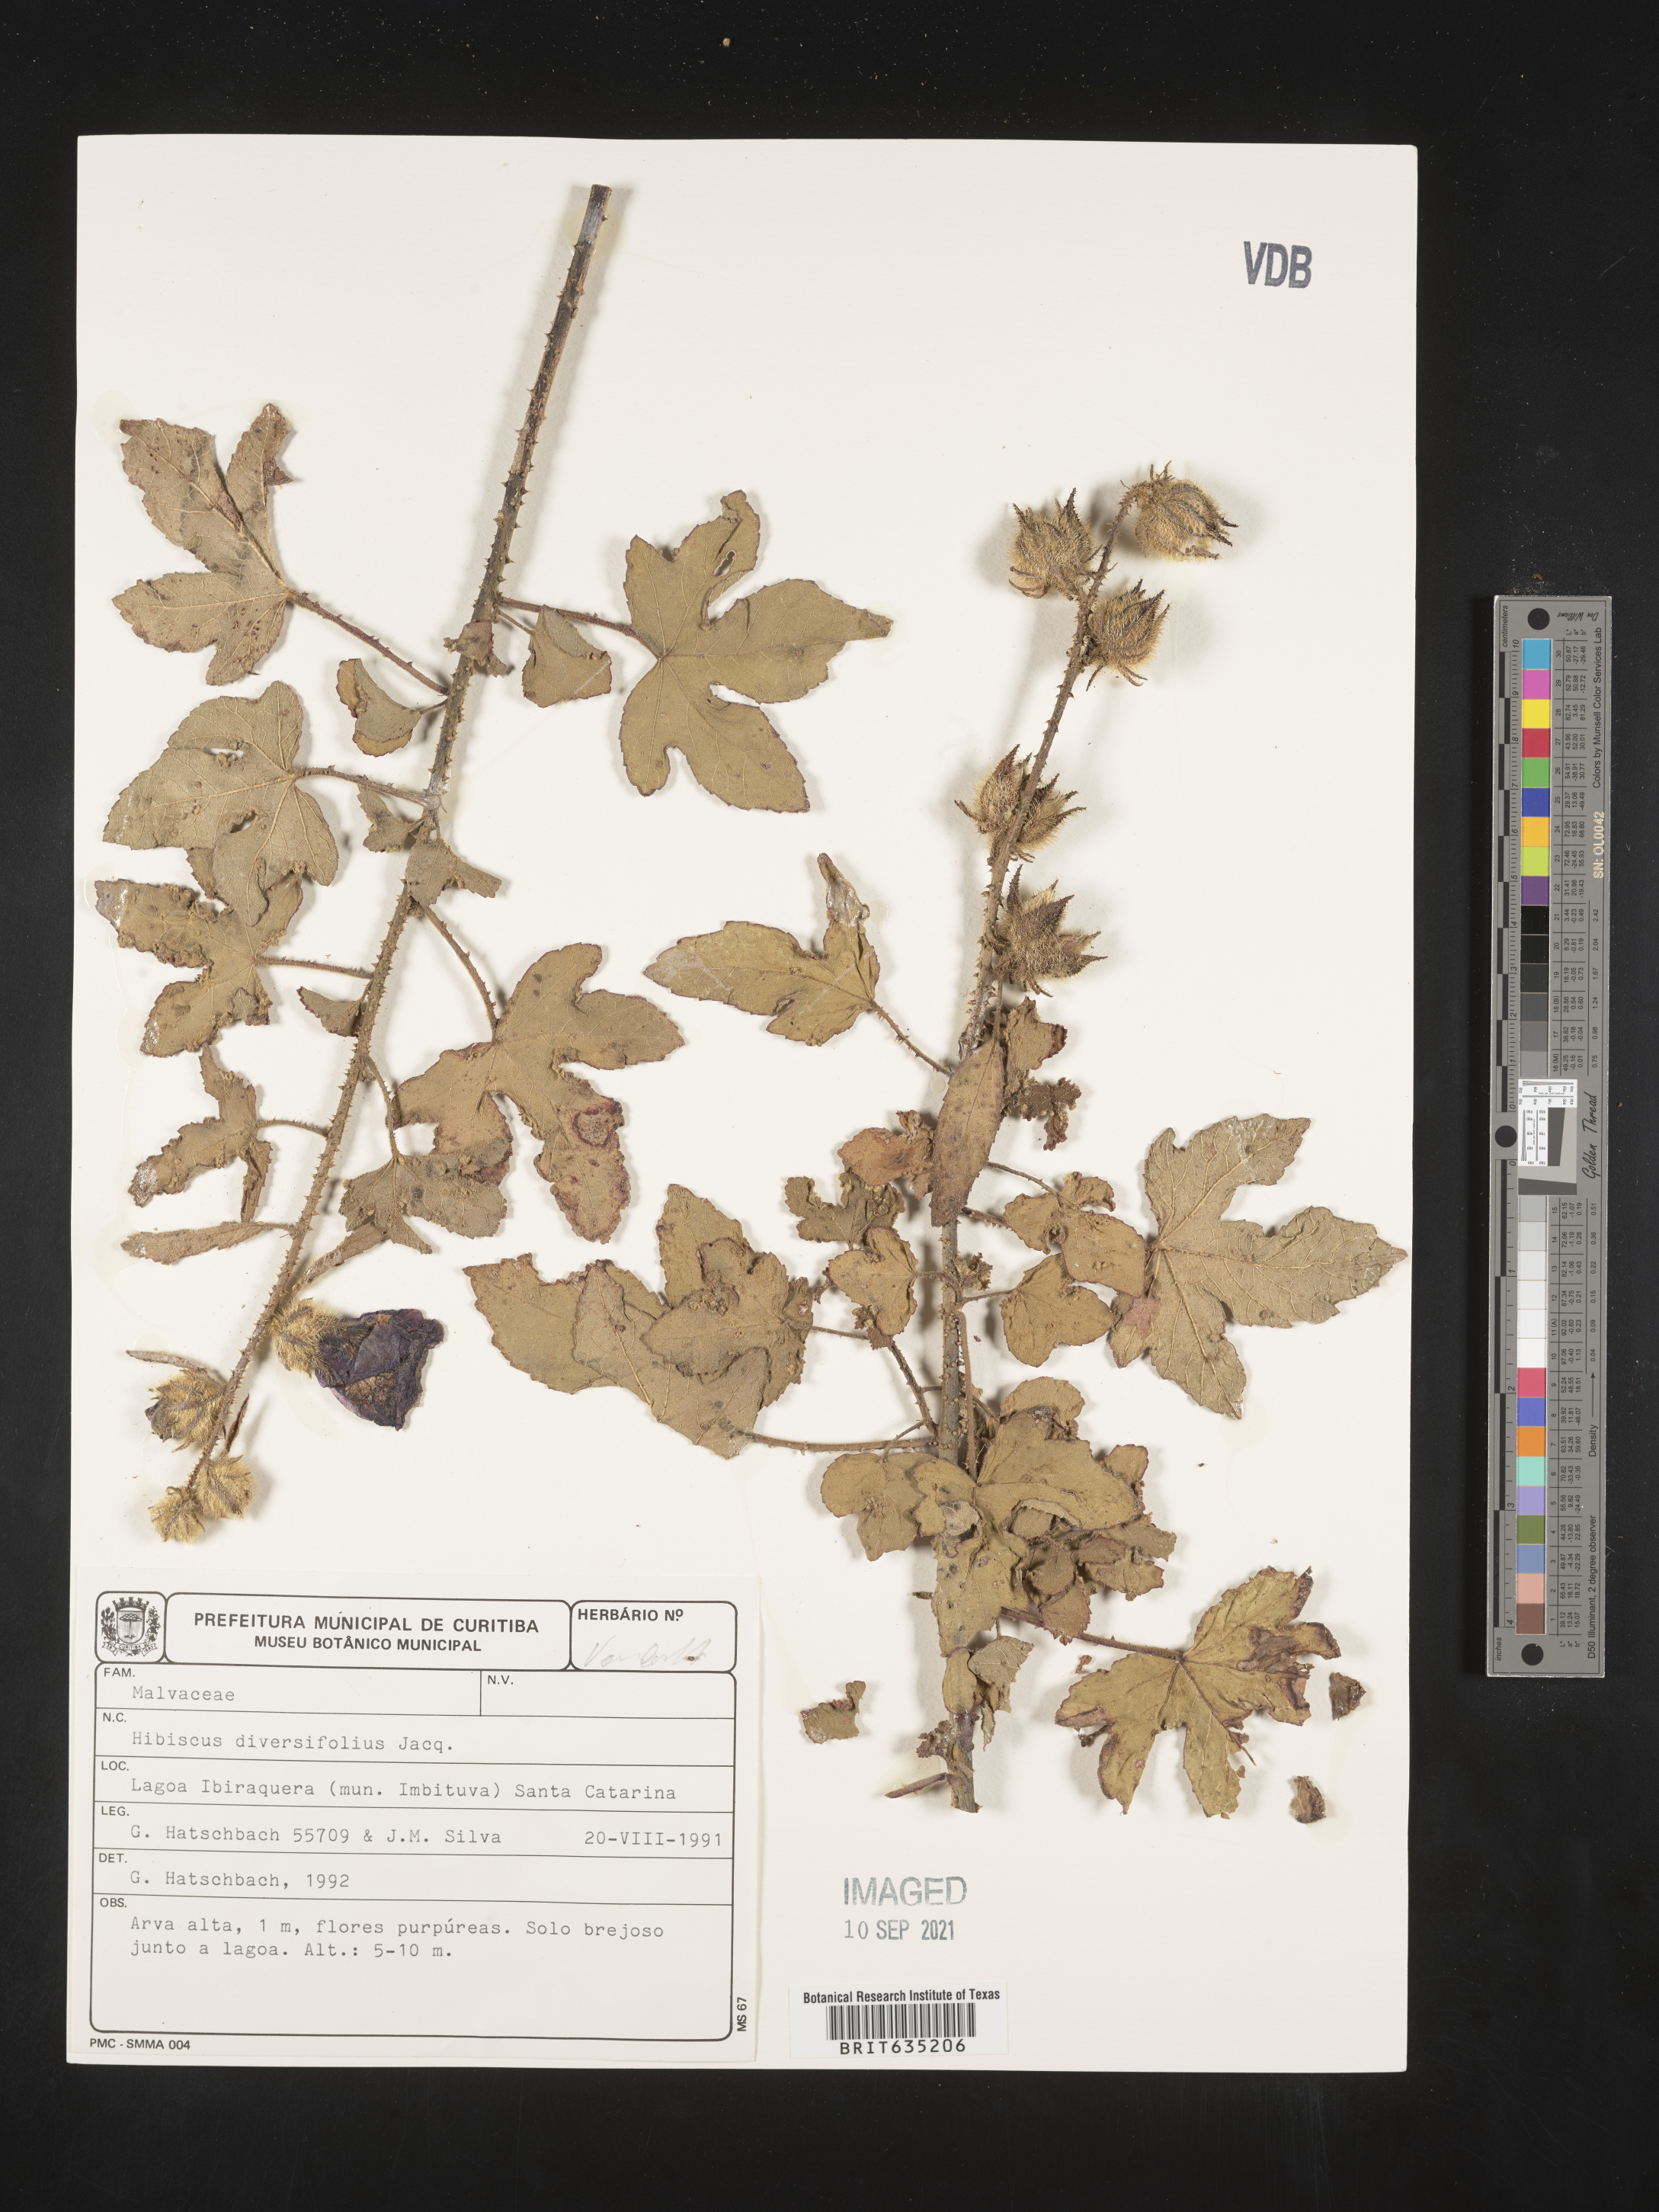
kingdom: Plantae
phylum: Tracheophyta
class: Magnoliopsida
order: Malvales
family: Malvaceae
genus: Hibiscus
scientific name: Hibiscus
